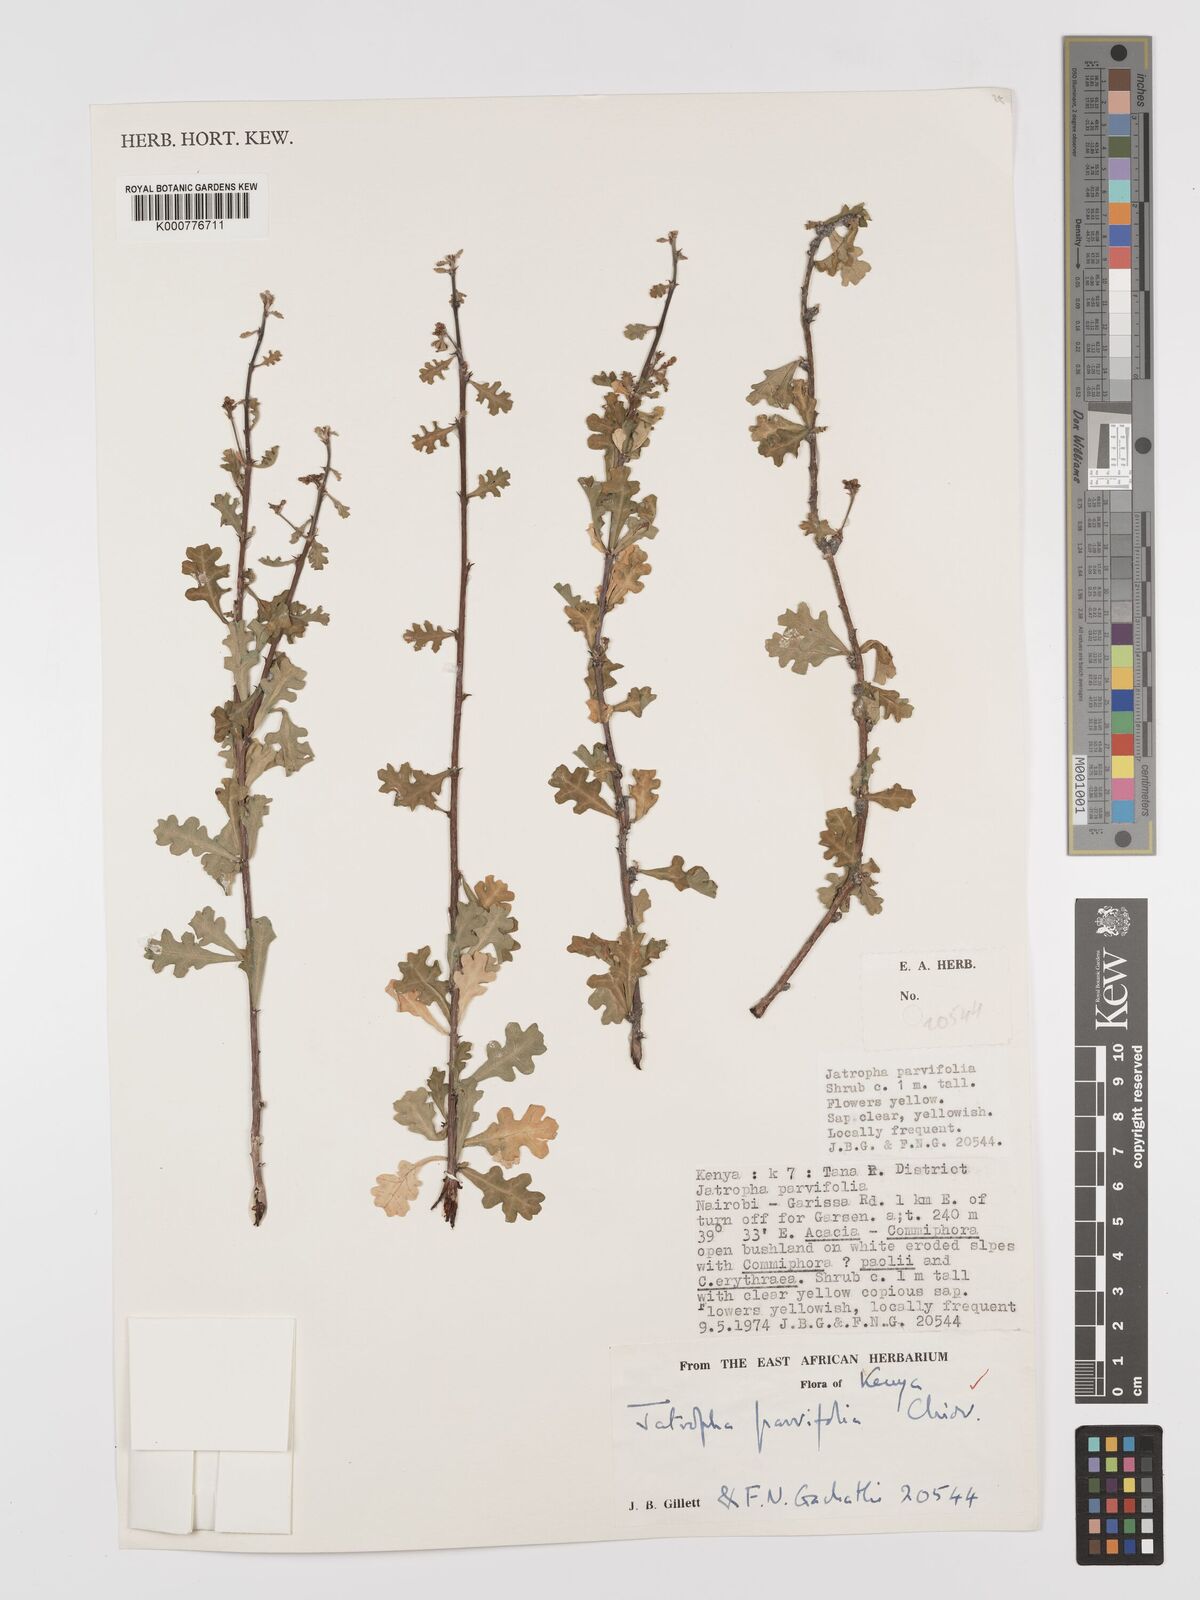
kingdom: Plantae
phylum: Tracheophyta
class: Magnoliopsida
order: Malpighiales
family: Euphorbiaceae
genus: Jatropha
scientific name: Jatropha rivae
